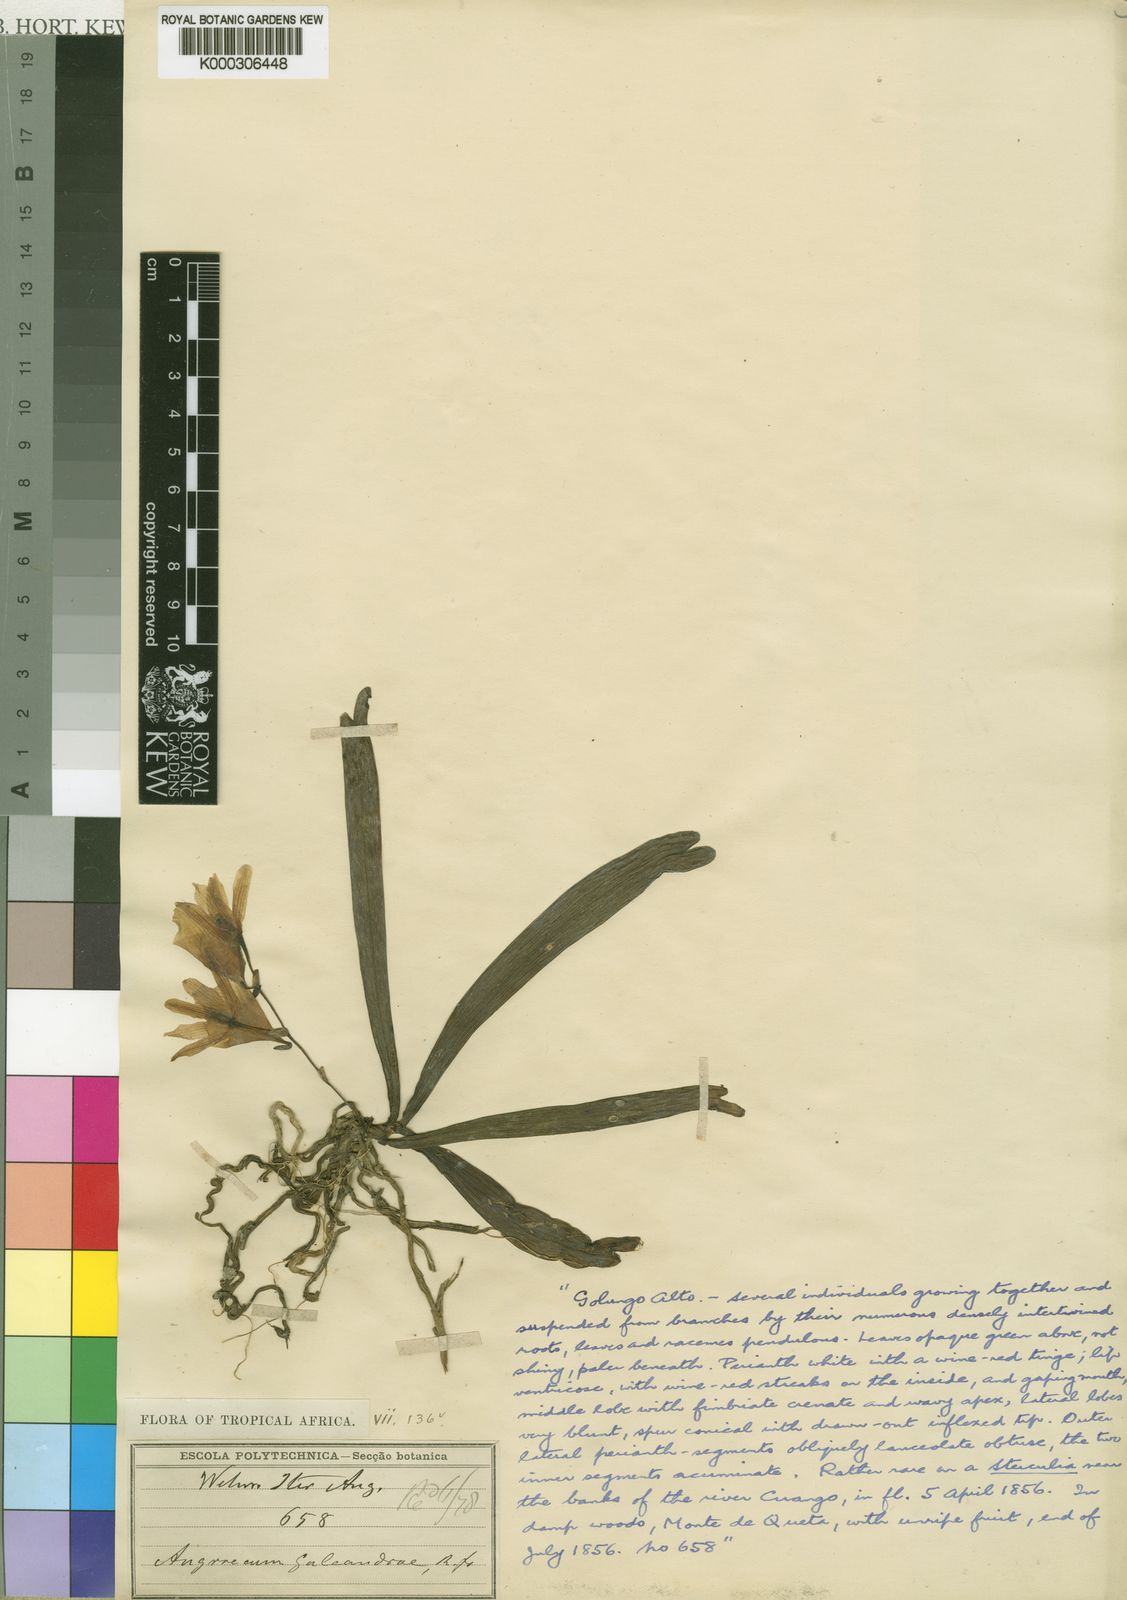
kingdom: Plantae
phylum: Tracheophyta
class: Liliopsida
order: Asparagales
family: Orchidaceae
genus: Eurychone
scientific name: Eurychone galeandrae
